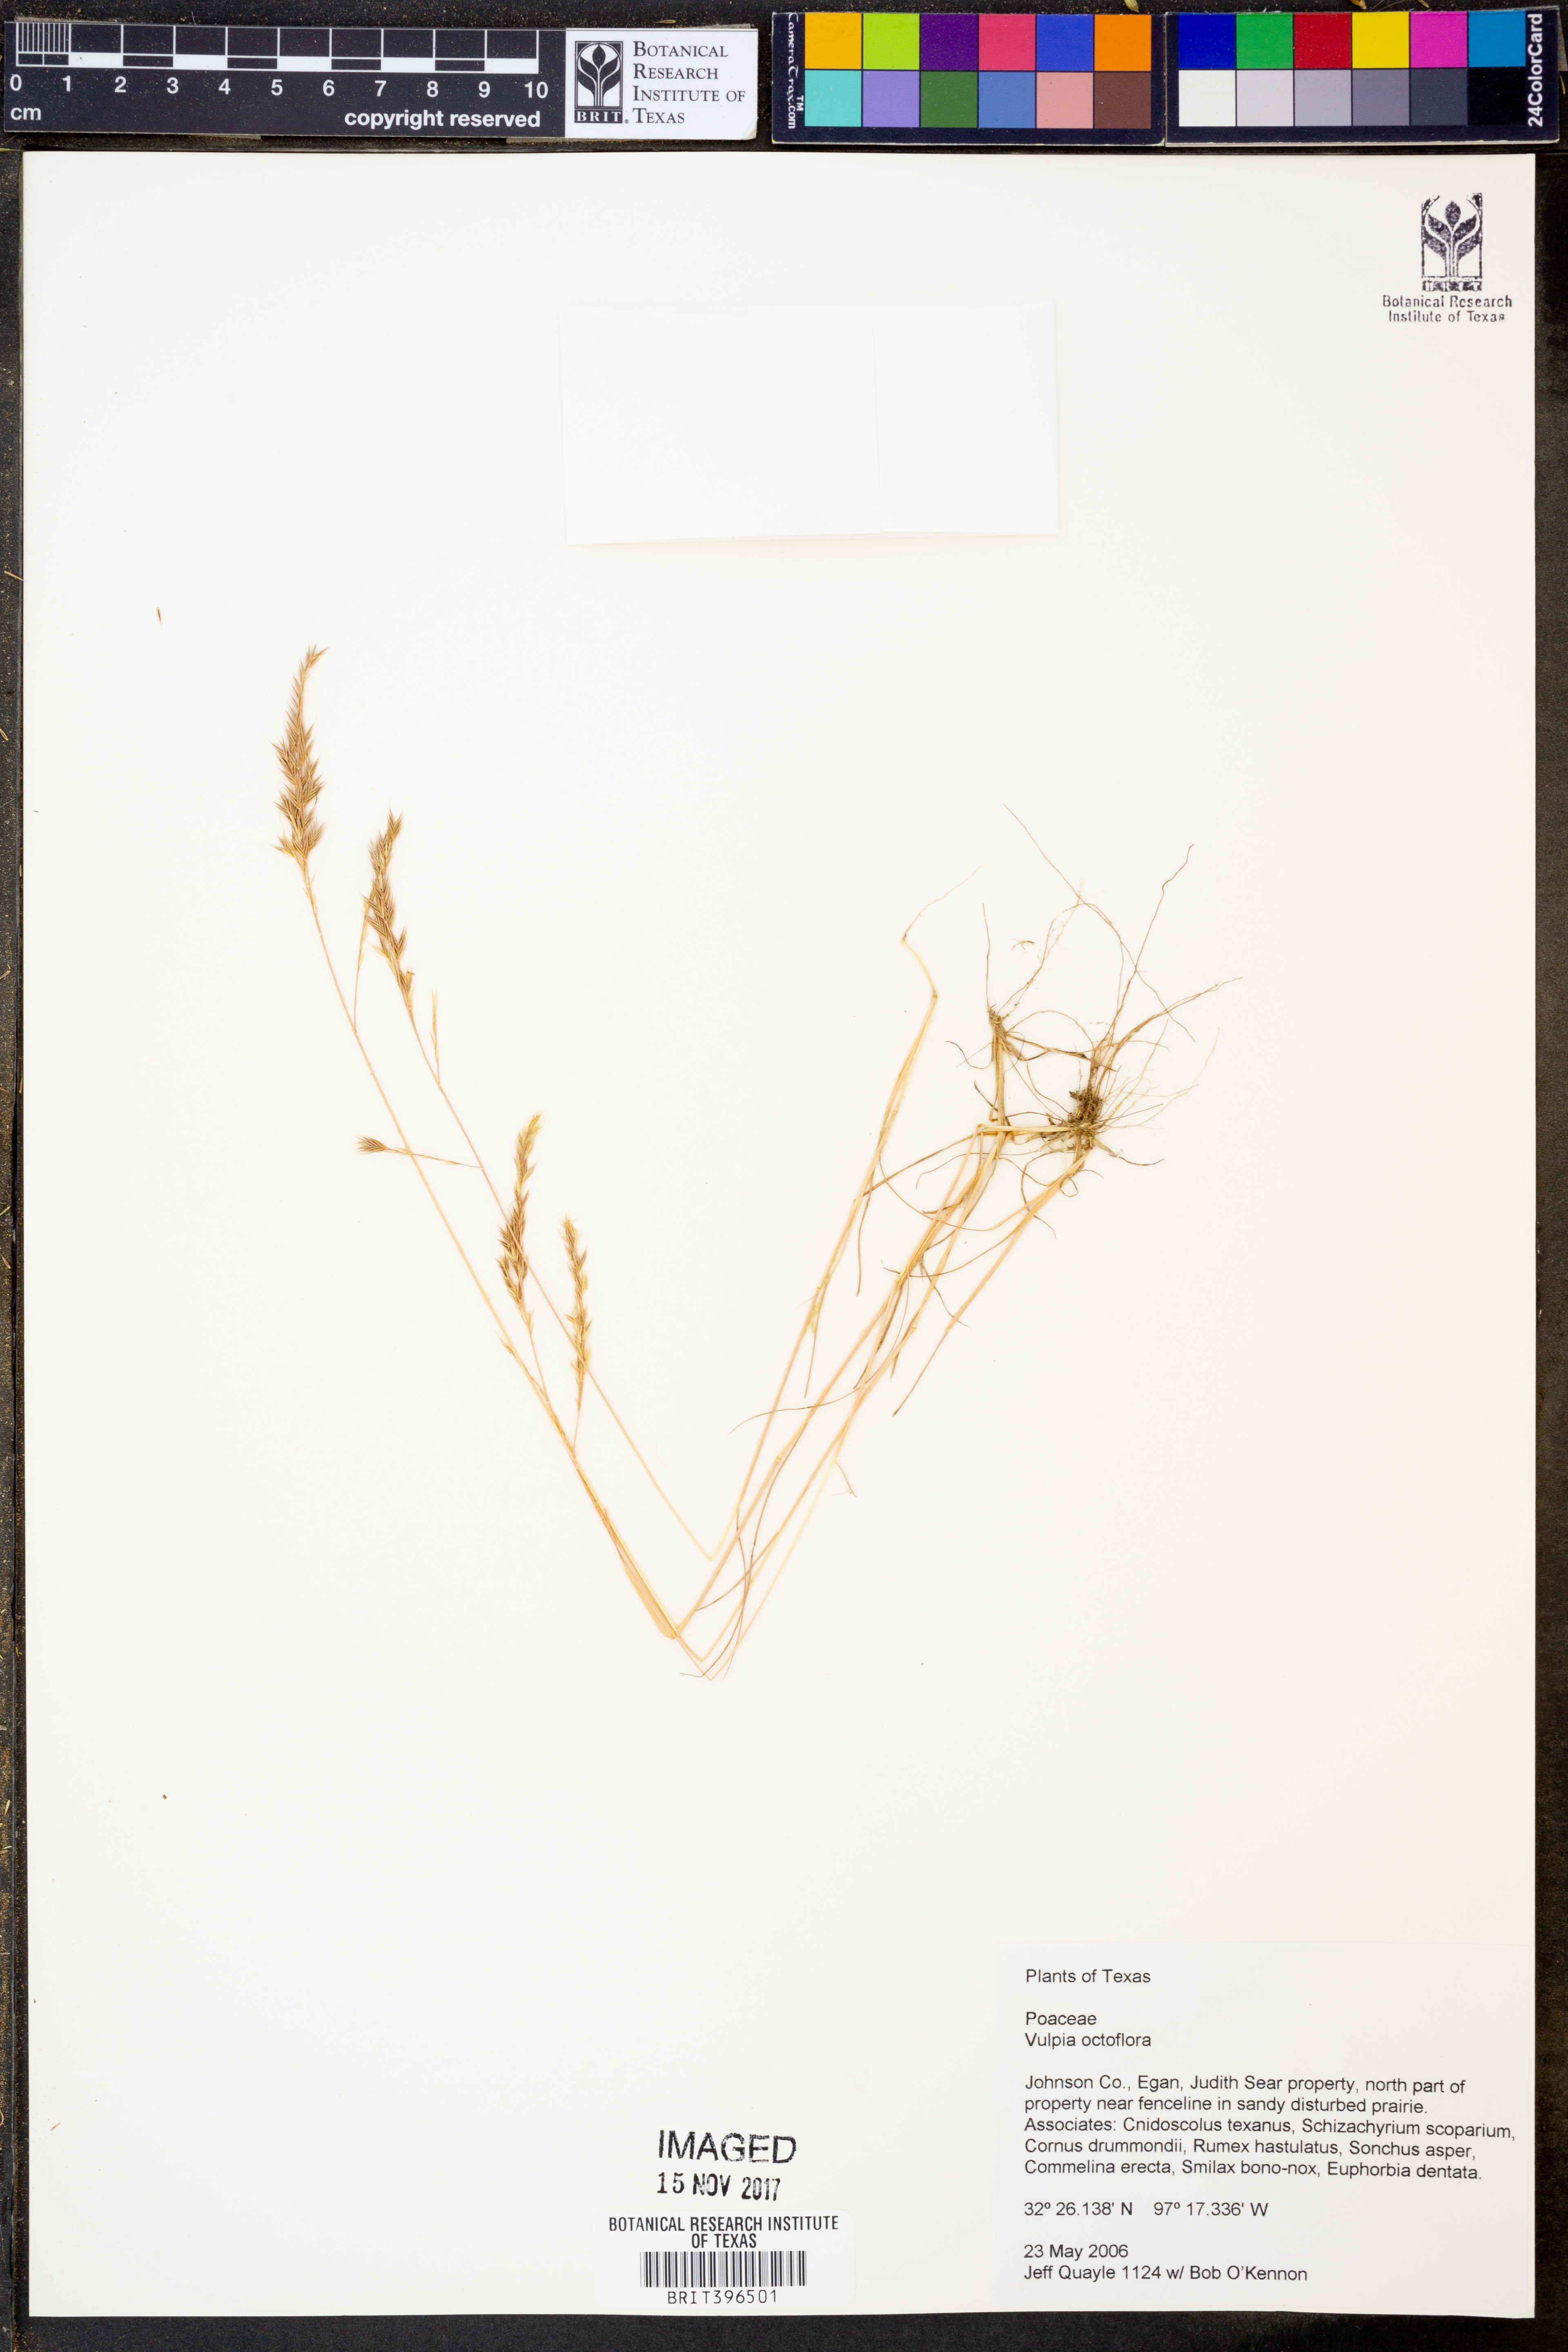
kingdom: Plantae
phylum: Tracheophyta
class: Liliopsida
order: Poales
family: Poaceae
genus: Festuca
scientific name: Festuca octoflora
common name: Sixweeks grass
